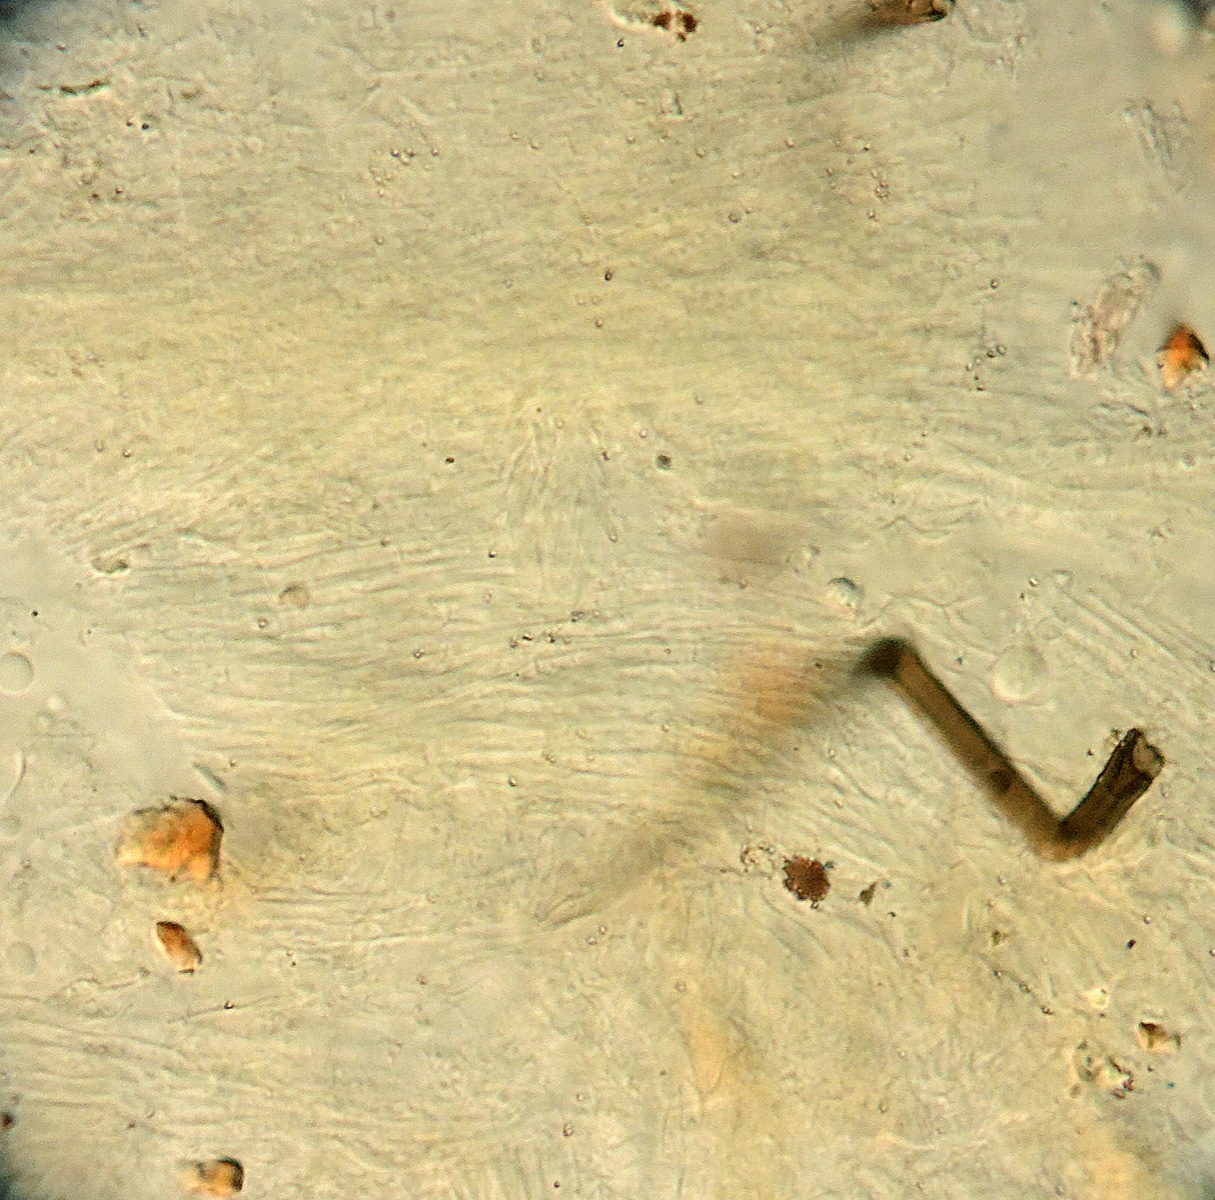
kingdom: Fungi
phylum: Basidiomycota
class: Agaricomycetes
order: Corticiales
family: Corticiaceae
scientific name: Corticiaceae
